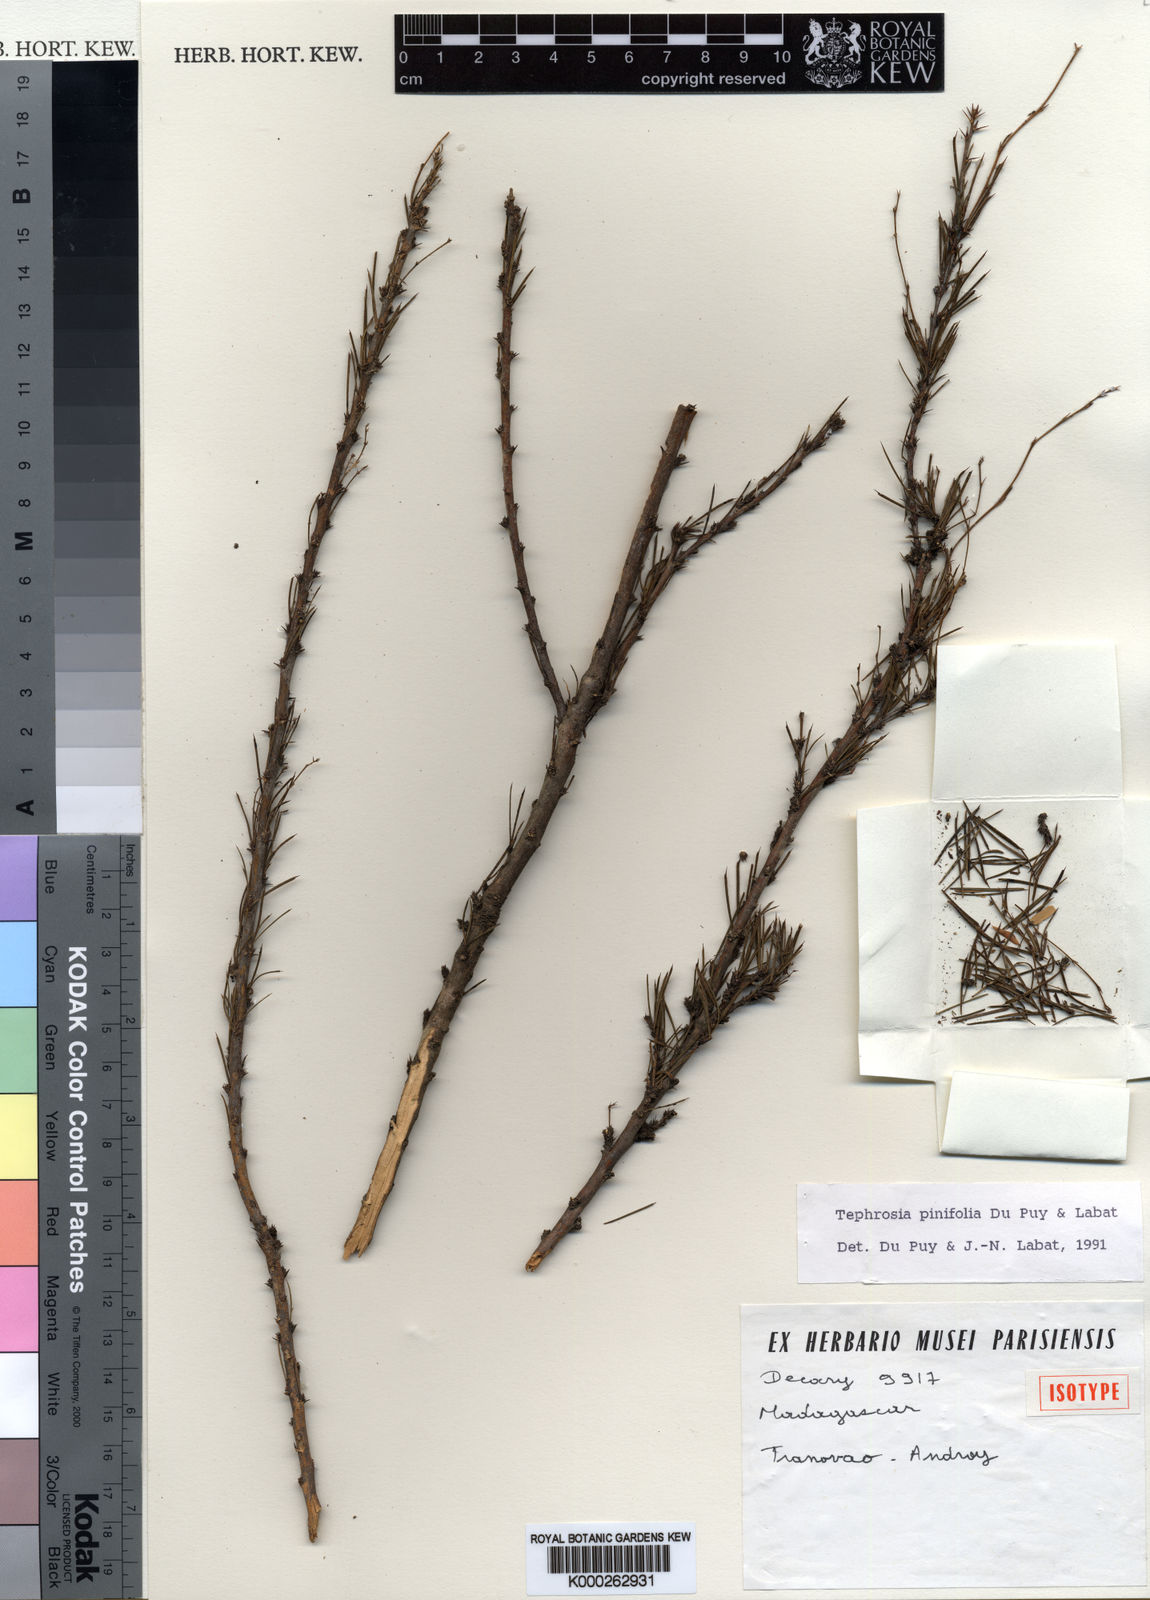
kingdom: Plantae
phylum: Tracheophyta
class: Magnoliopsida
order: Fabales
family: Fabaceae
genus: Tephrosia
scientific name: Tephrosia pinifolia
